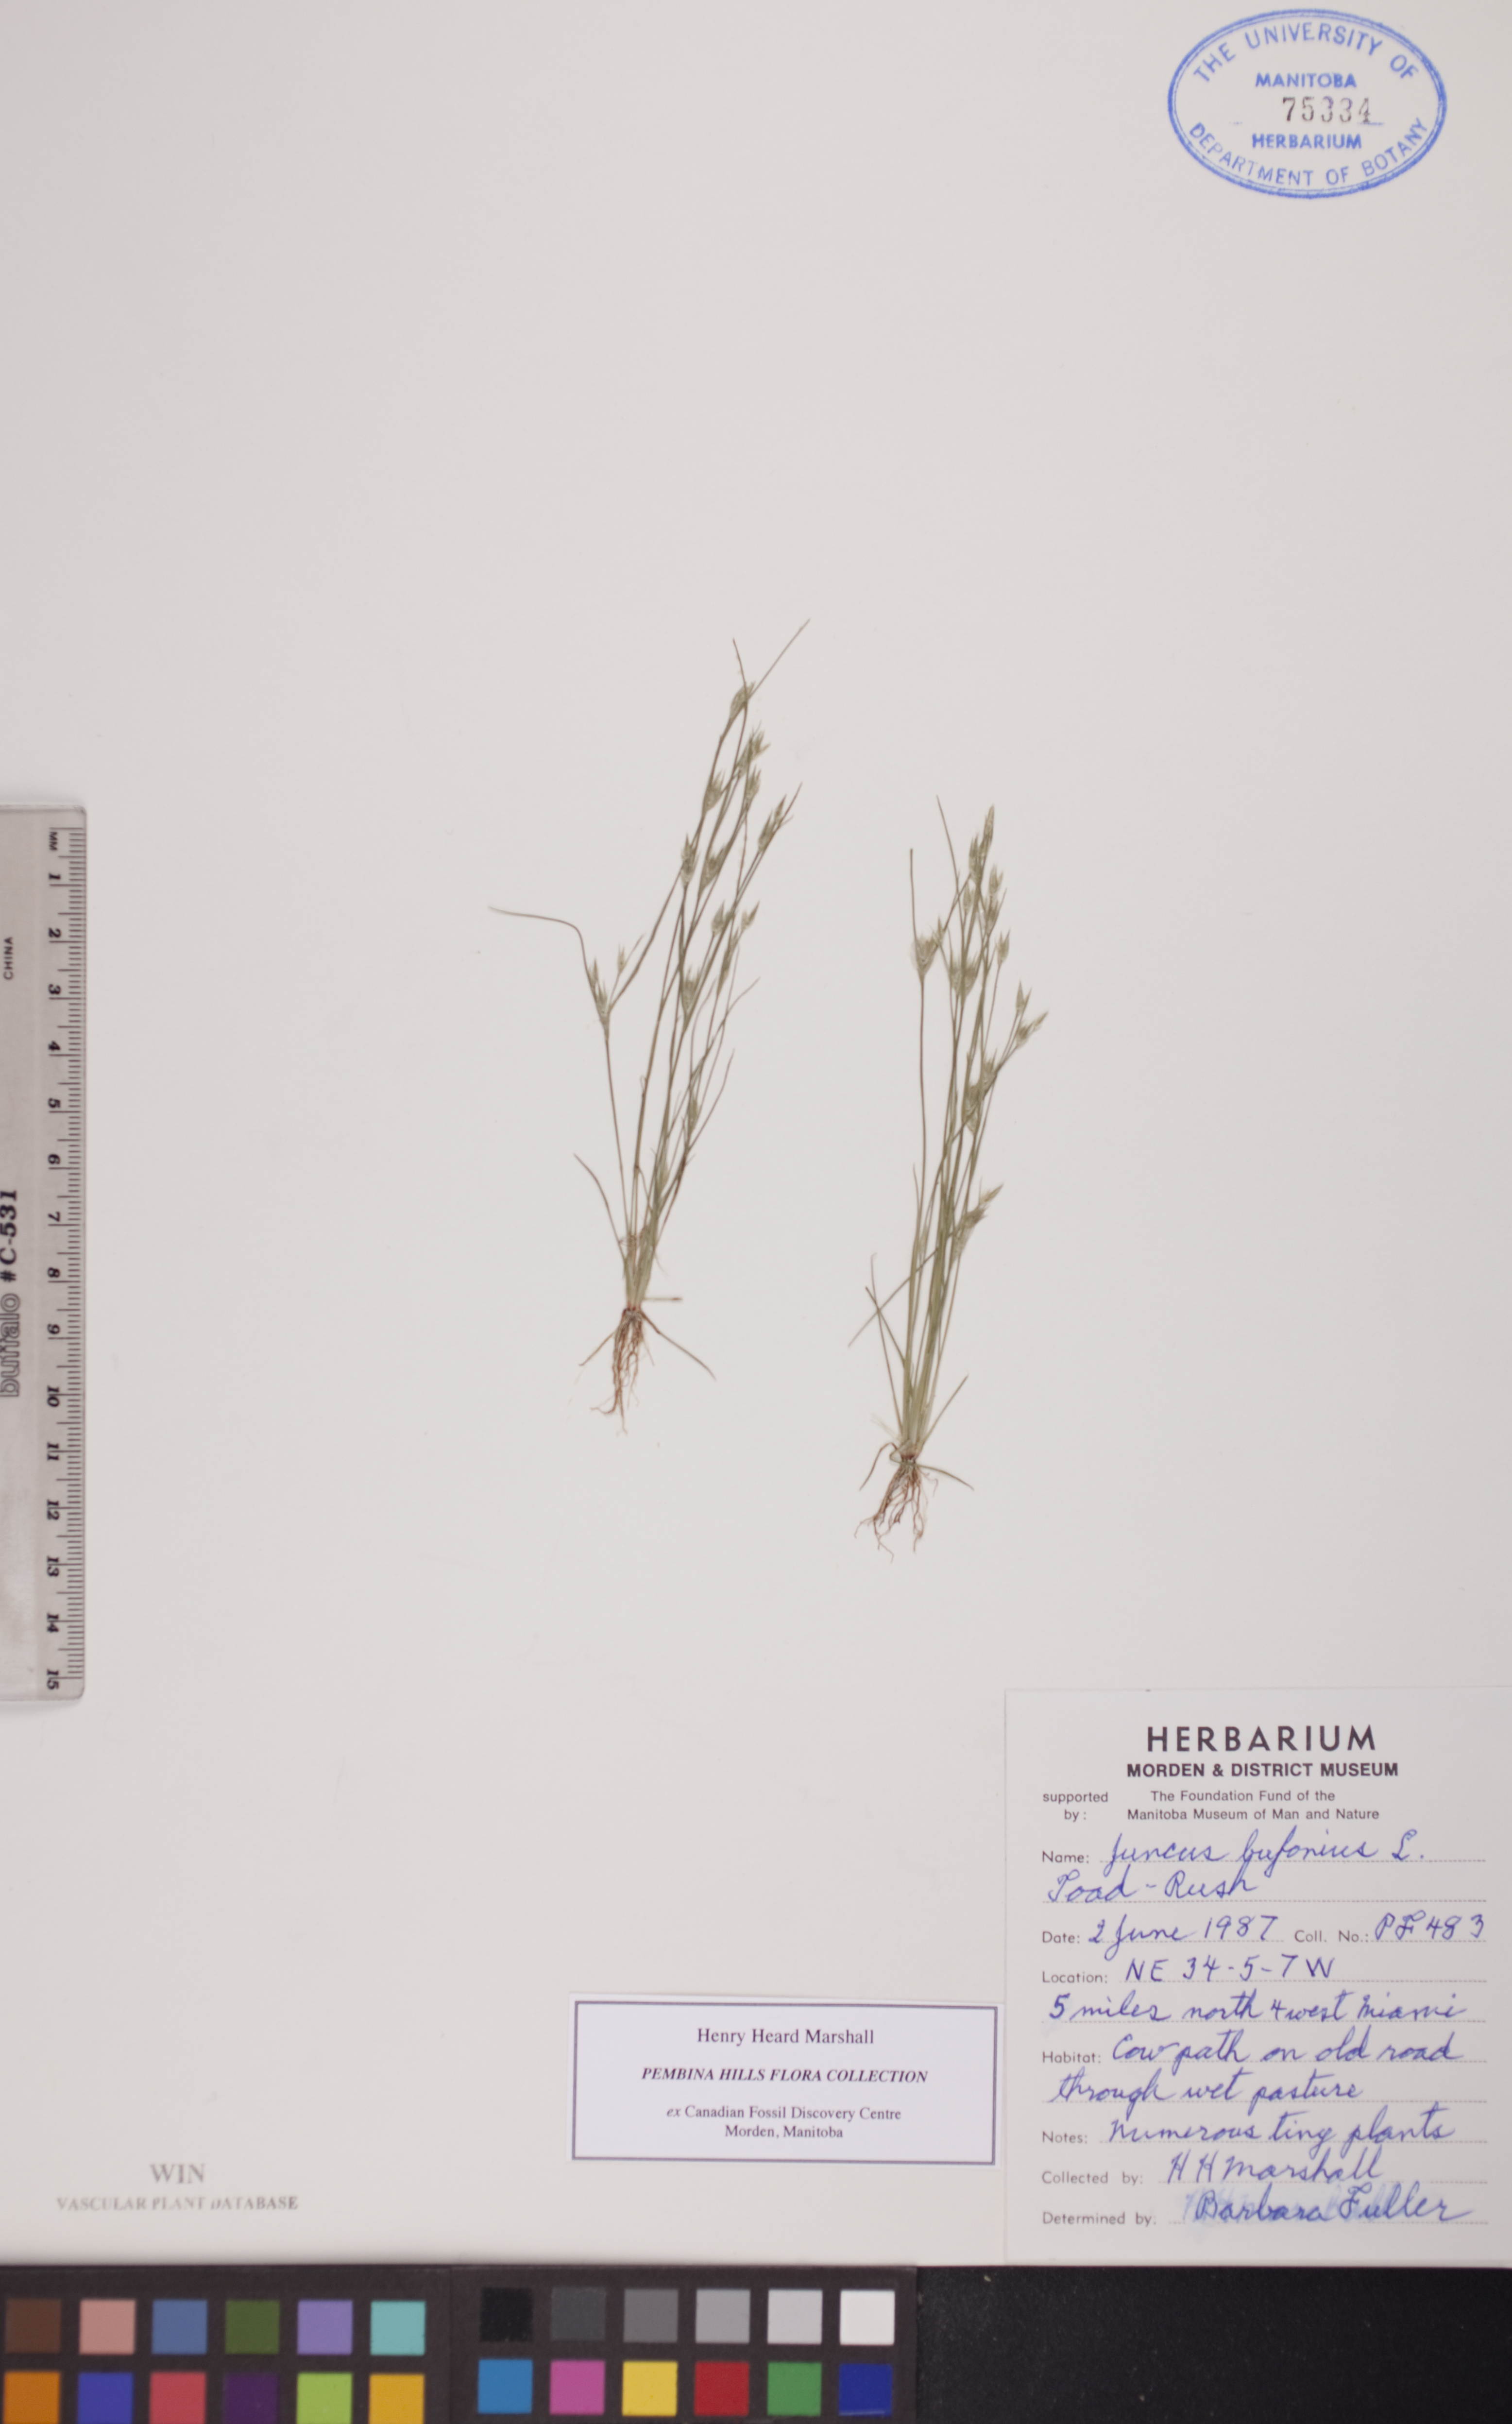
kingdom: Plantae
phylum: Tracheophyta
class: Liliopsida
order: Poales
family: Juncaceae
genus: Juncus
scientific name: Juncus bufonius
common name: Toad rush
